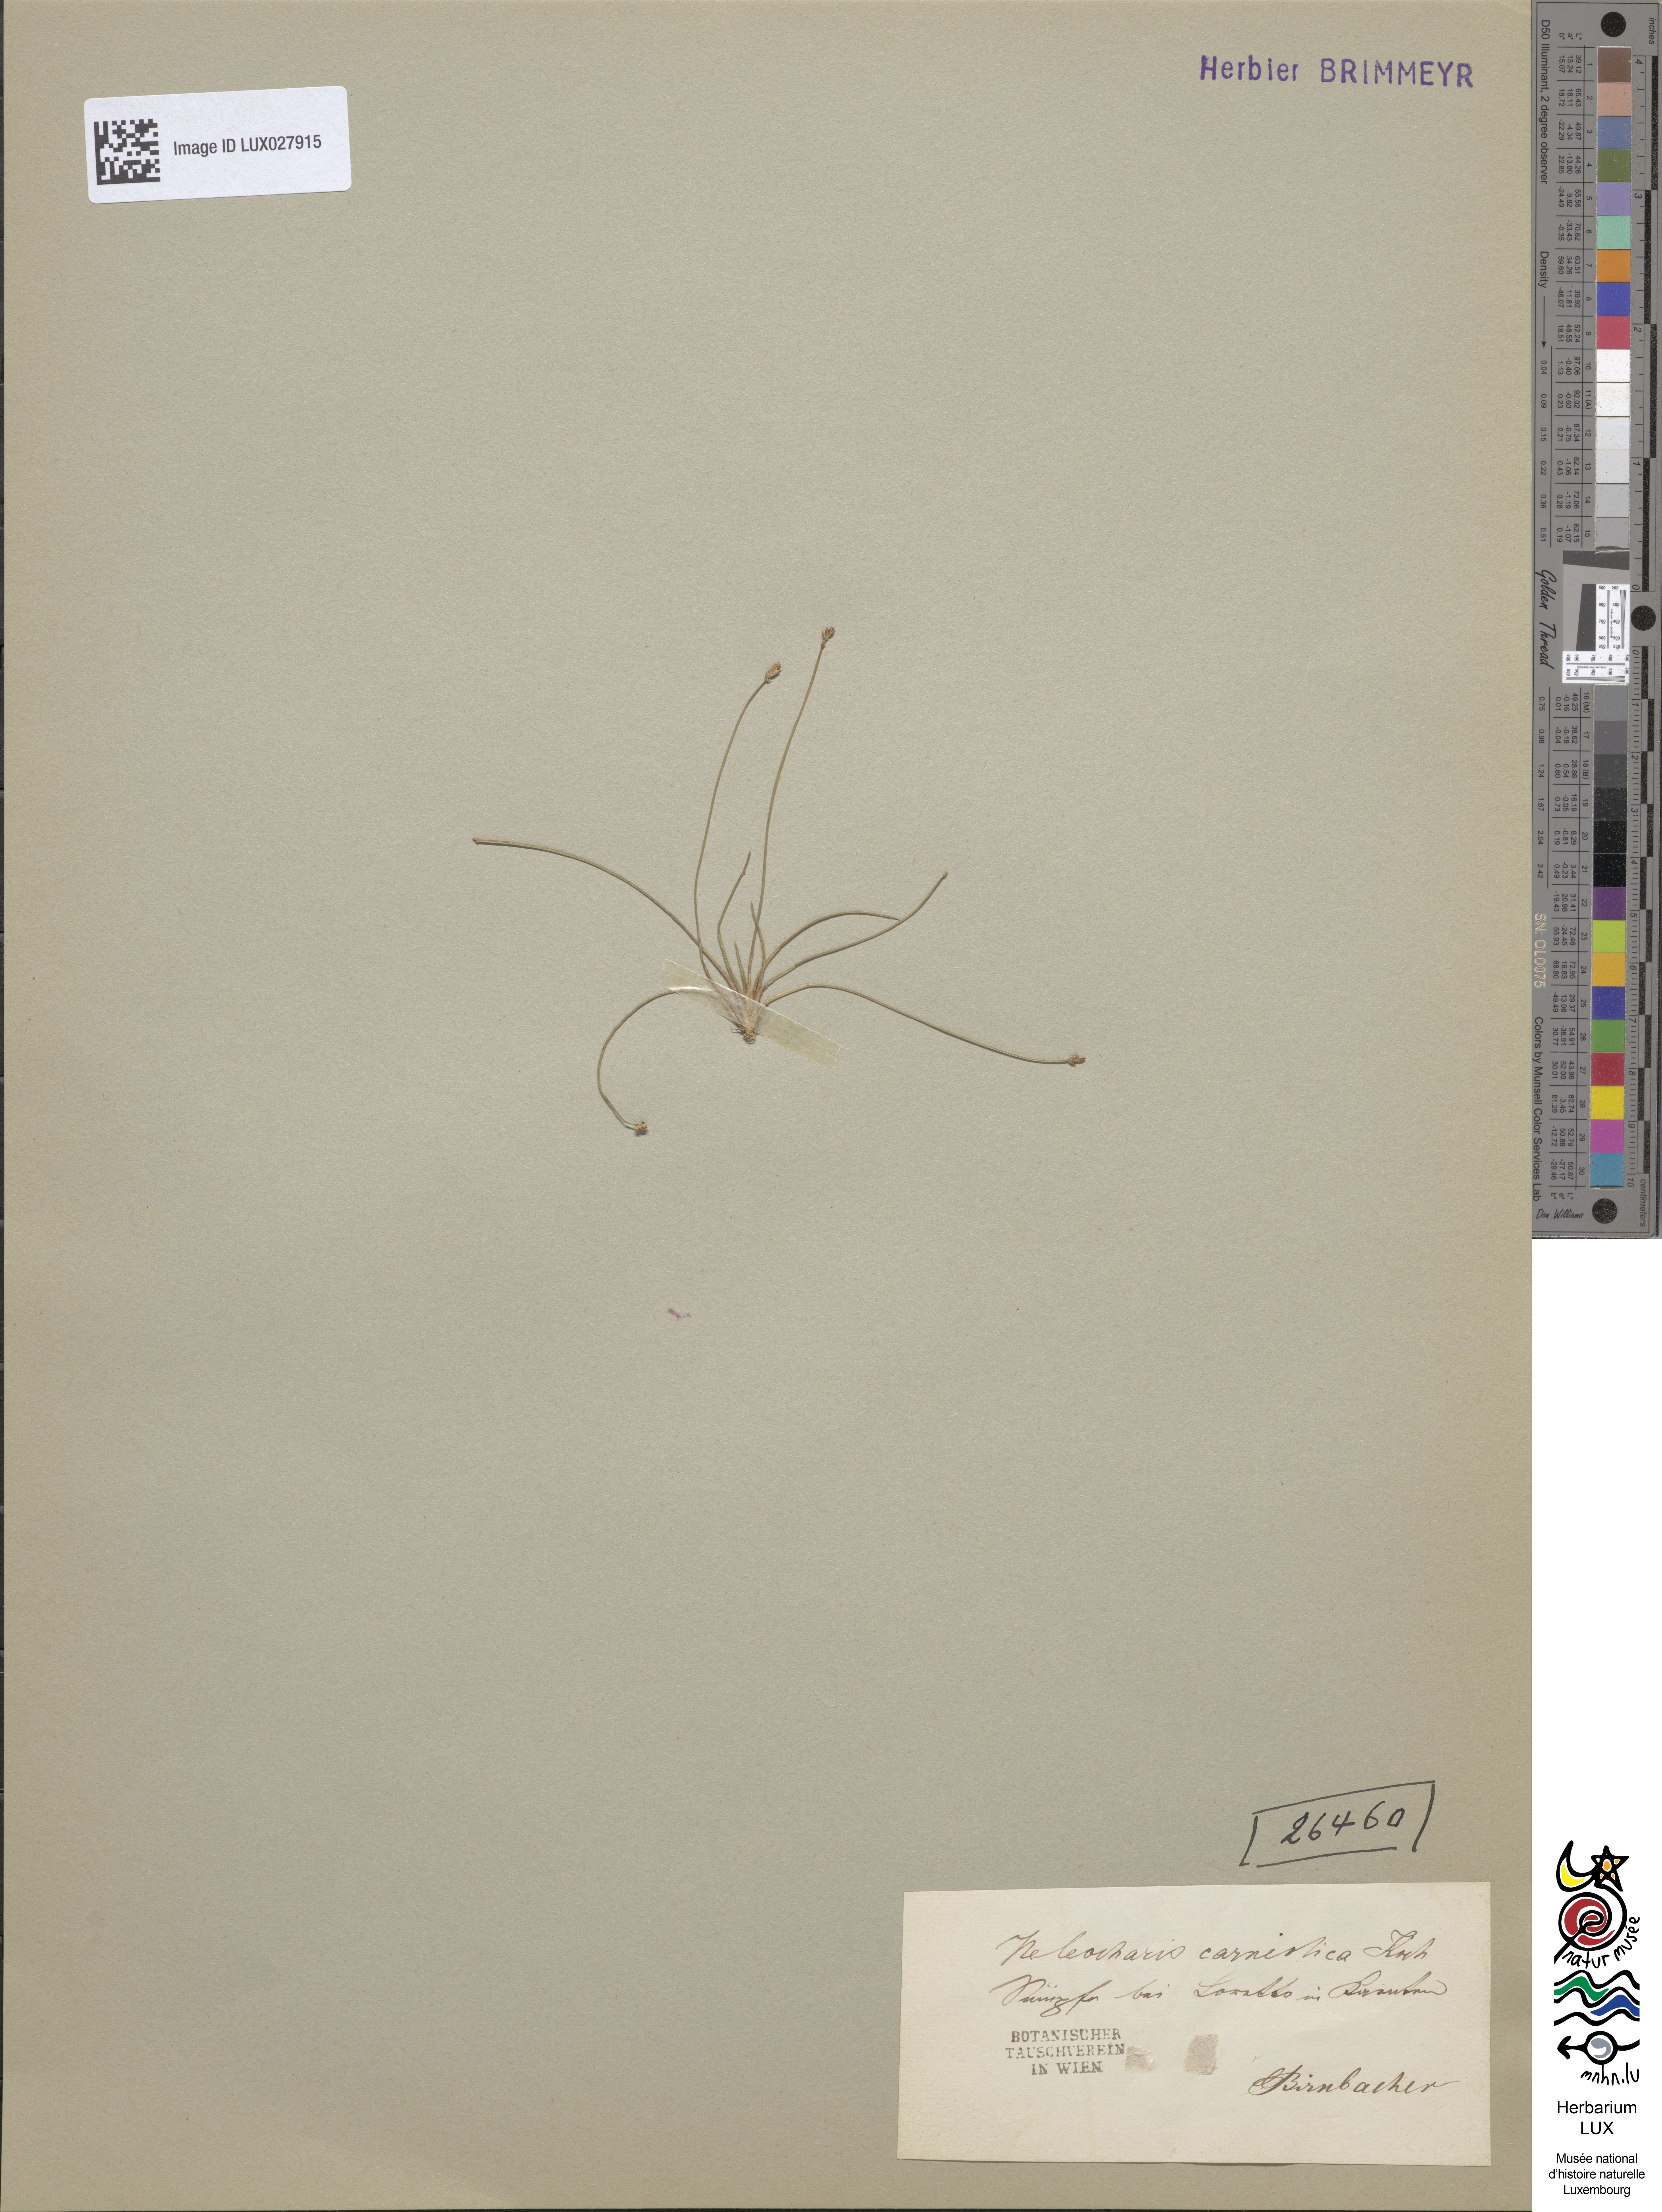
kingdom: Plantae
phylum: Tracheophyta
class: Liliopsida
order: Poales
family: Cyperaceae
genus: Eleocharis
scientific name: Eleocharis carniolica
